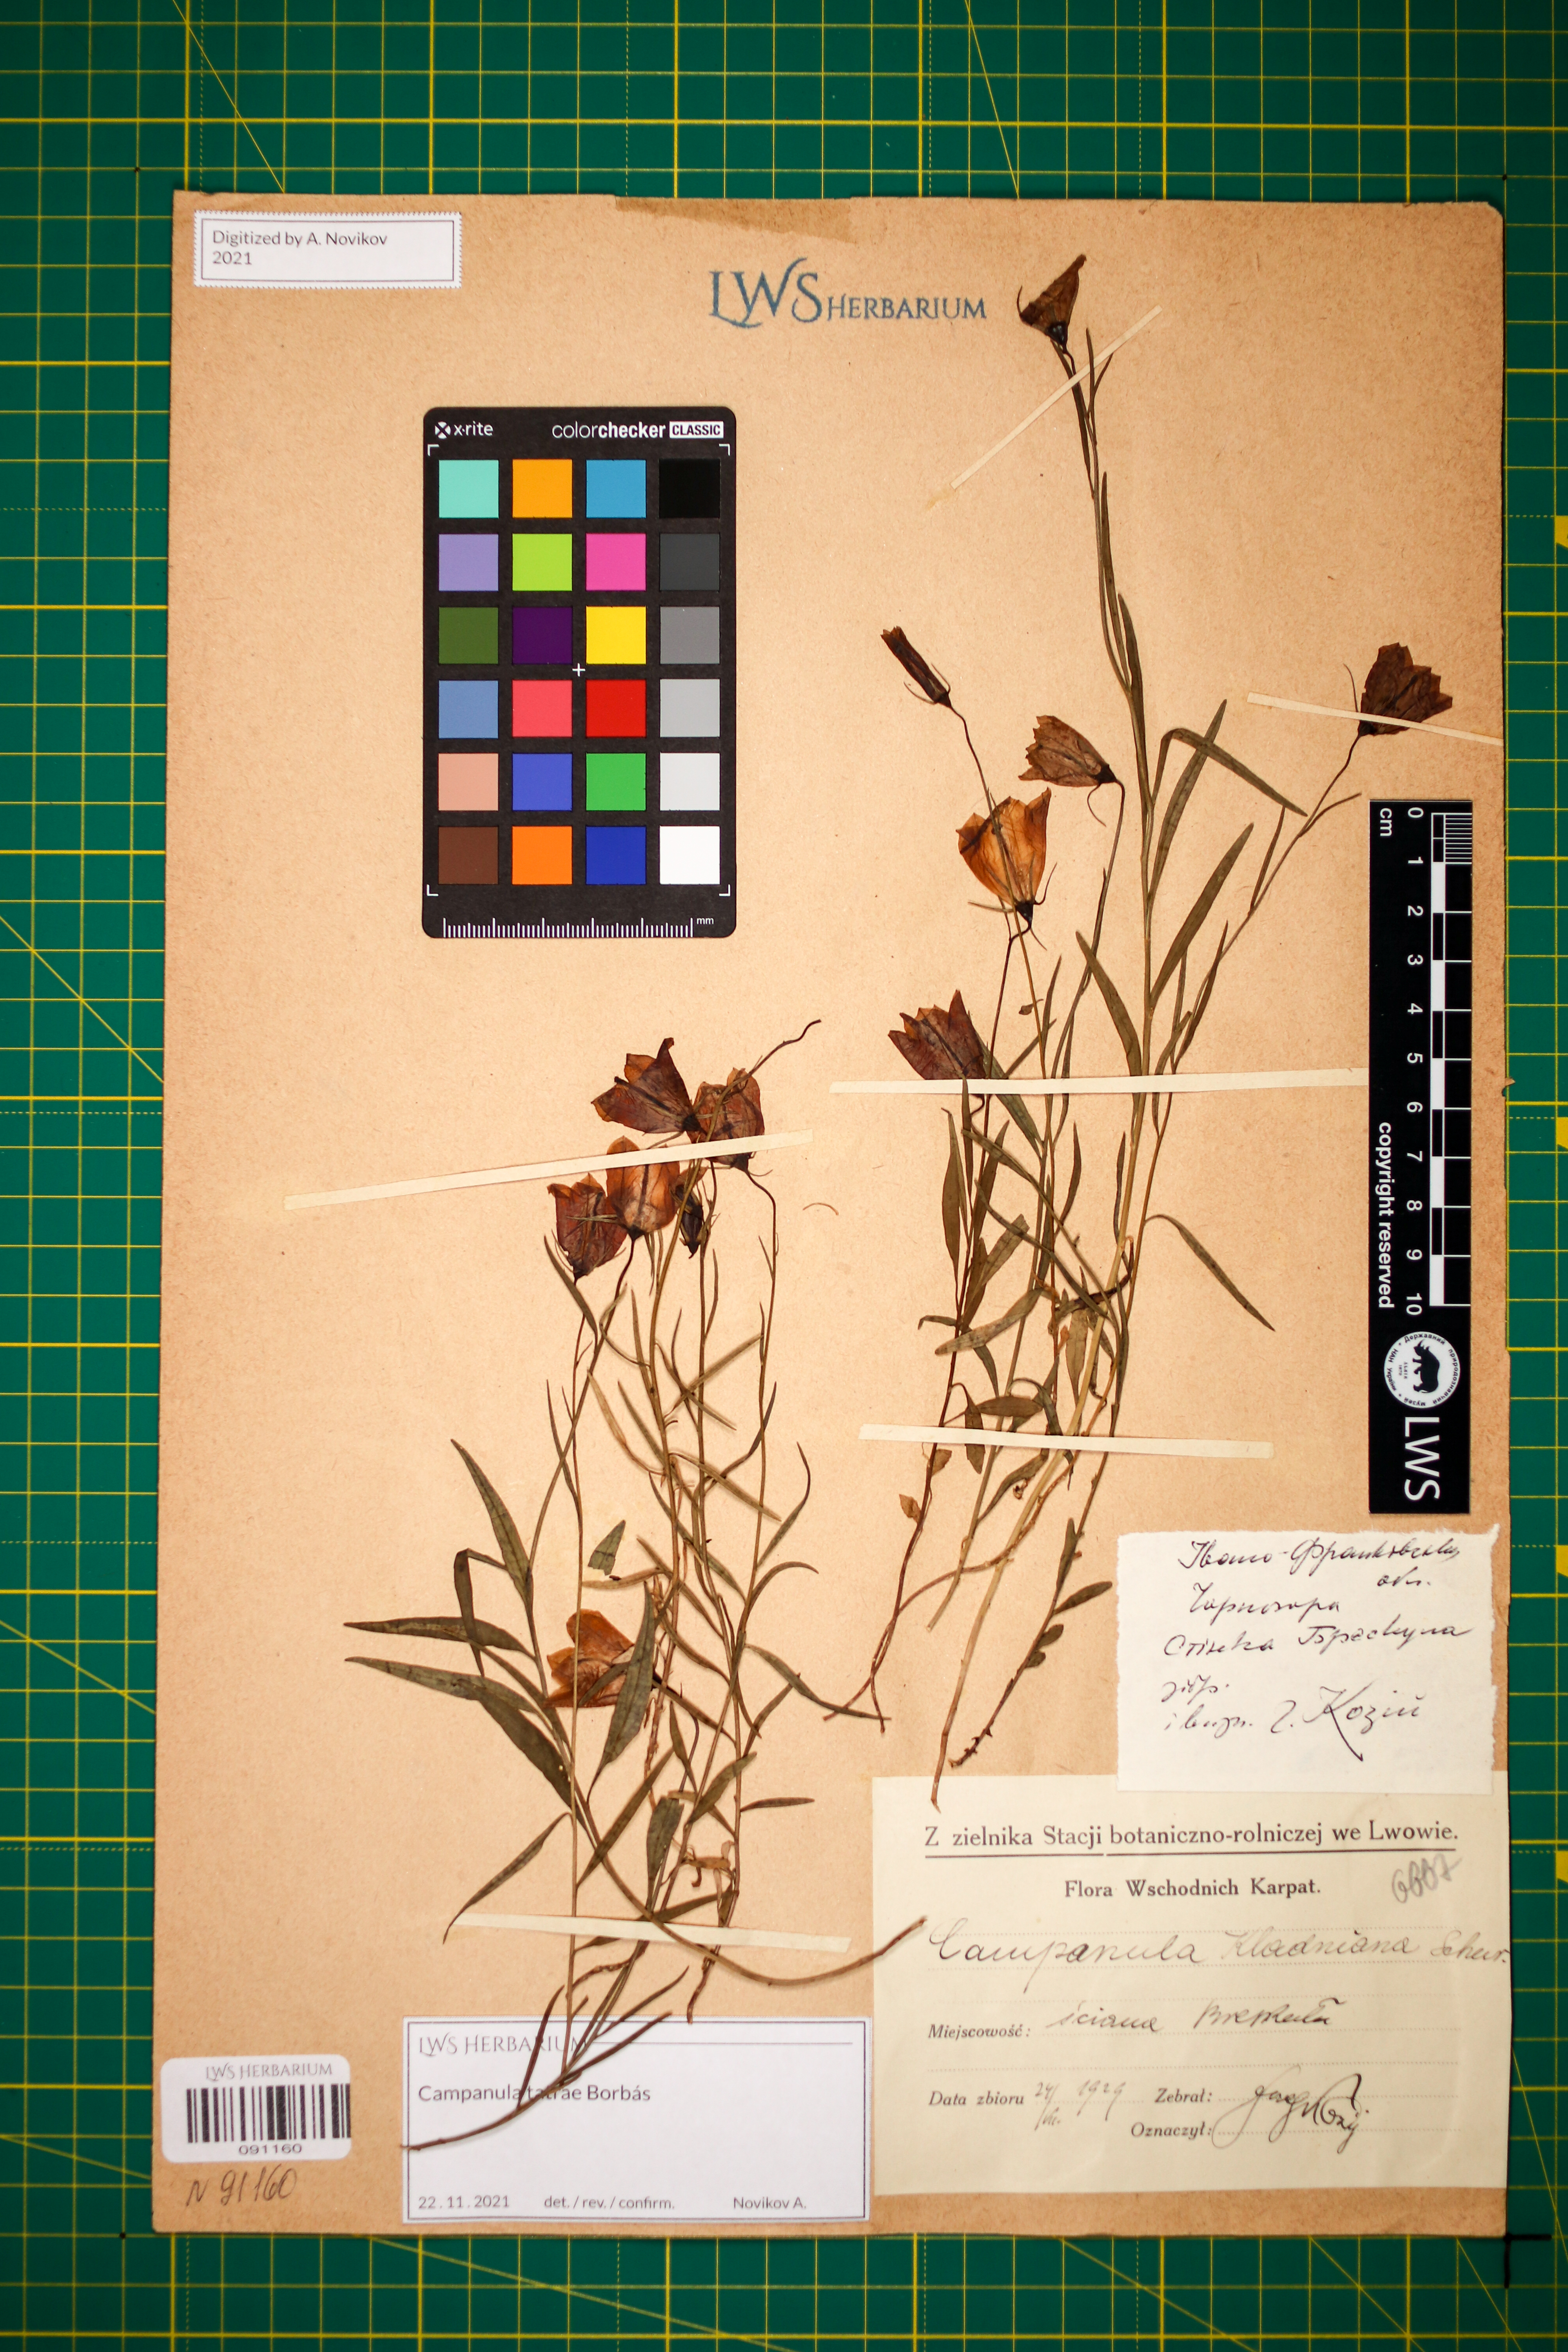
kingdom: Plantae
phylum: Tracheophyta
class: Magnoliopsida
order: Asterales
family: Campanulaceae
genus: Campanula
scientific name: Campanula kladniana
